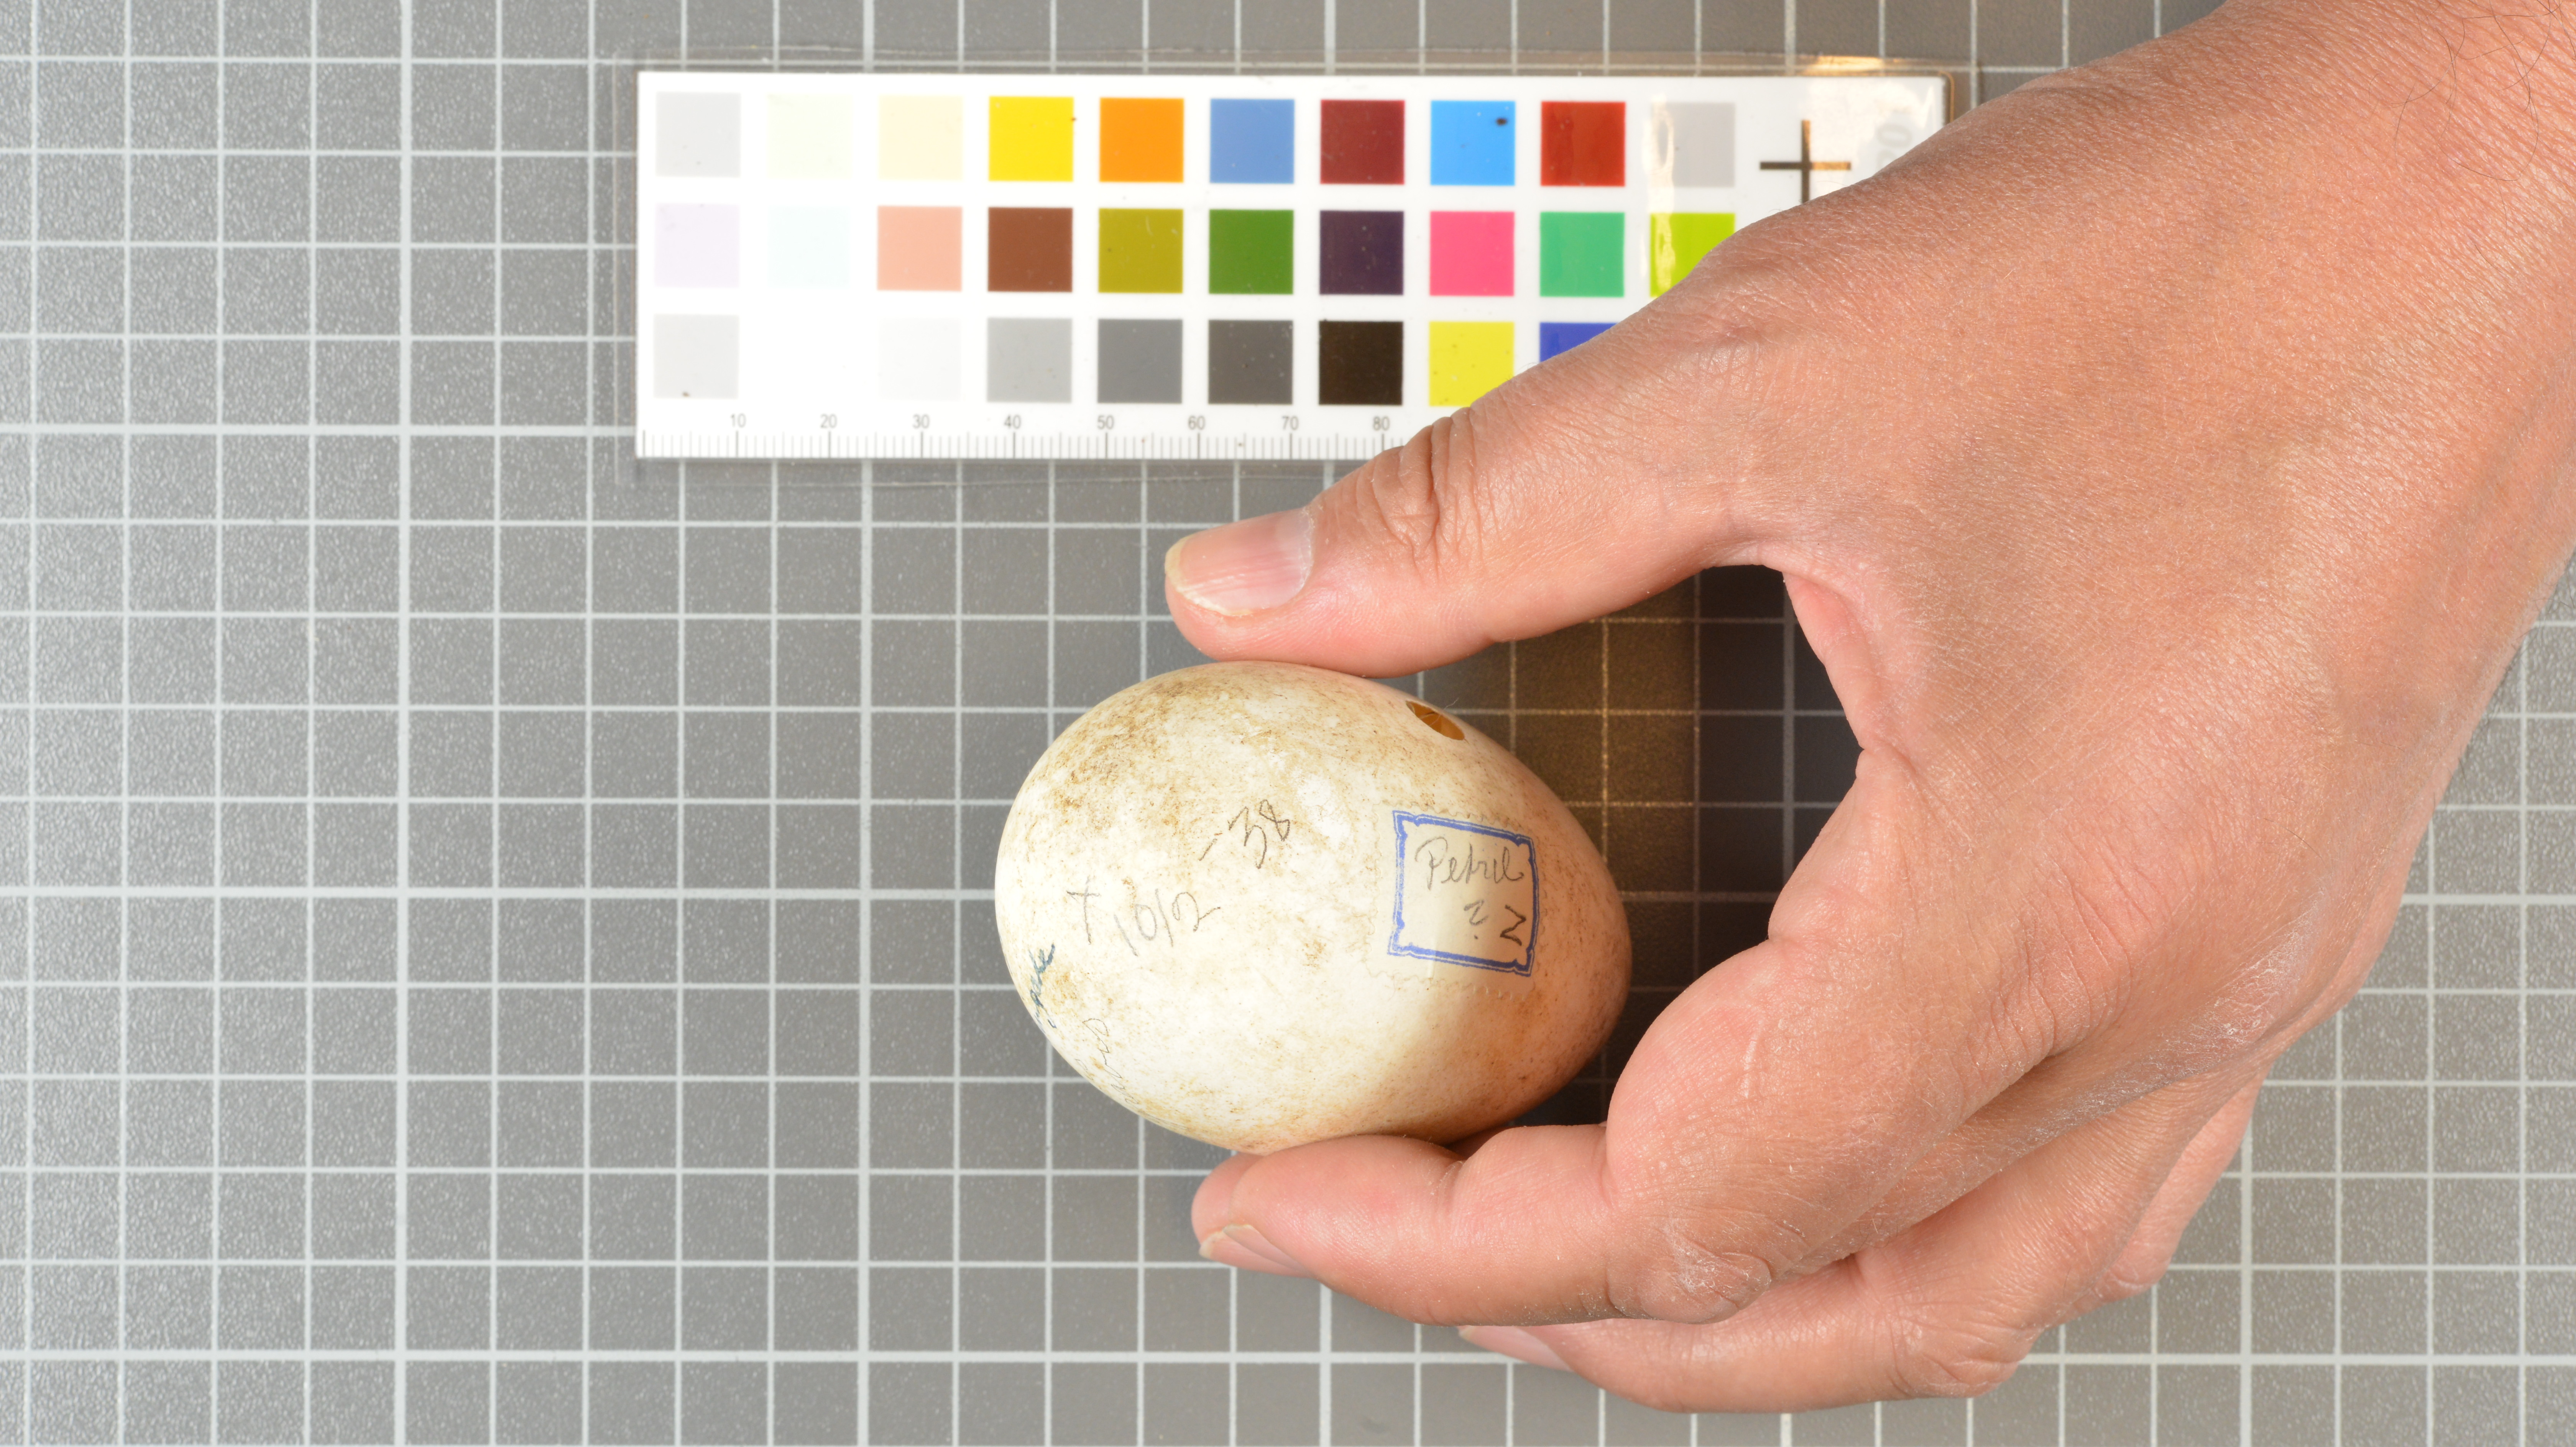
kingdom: Animalia
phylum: Chordata
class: Aves
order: Procellariiformes
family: Procellariidae
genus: Puffinus
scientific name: Puffinus gravis
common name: Great shearwater
